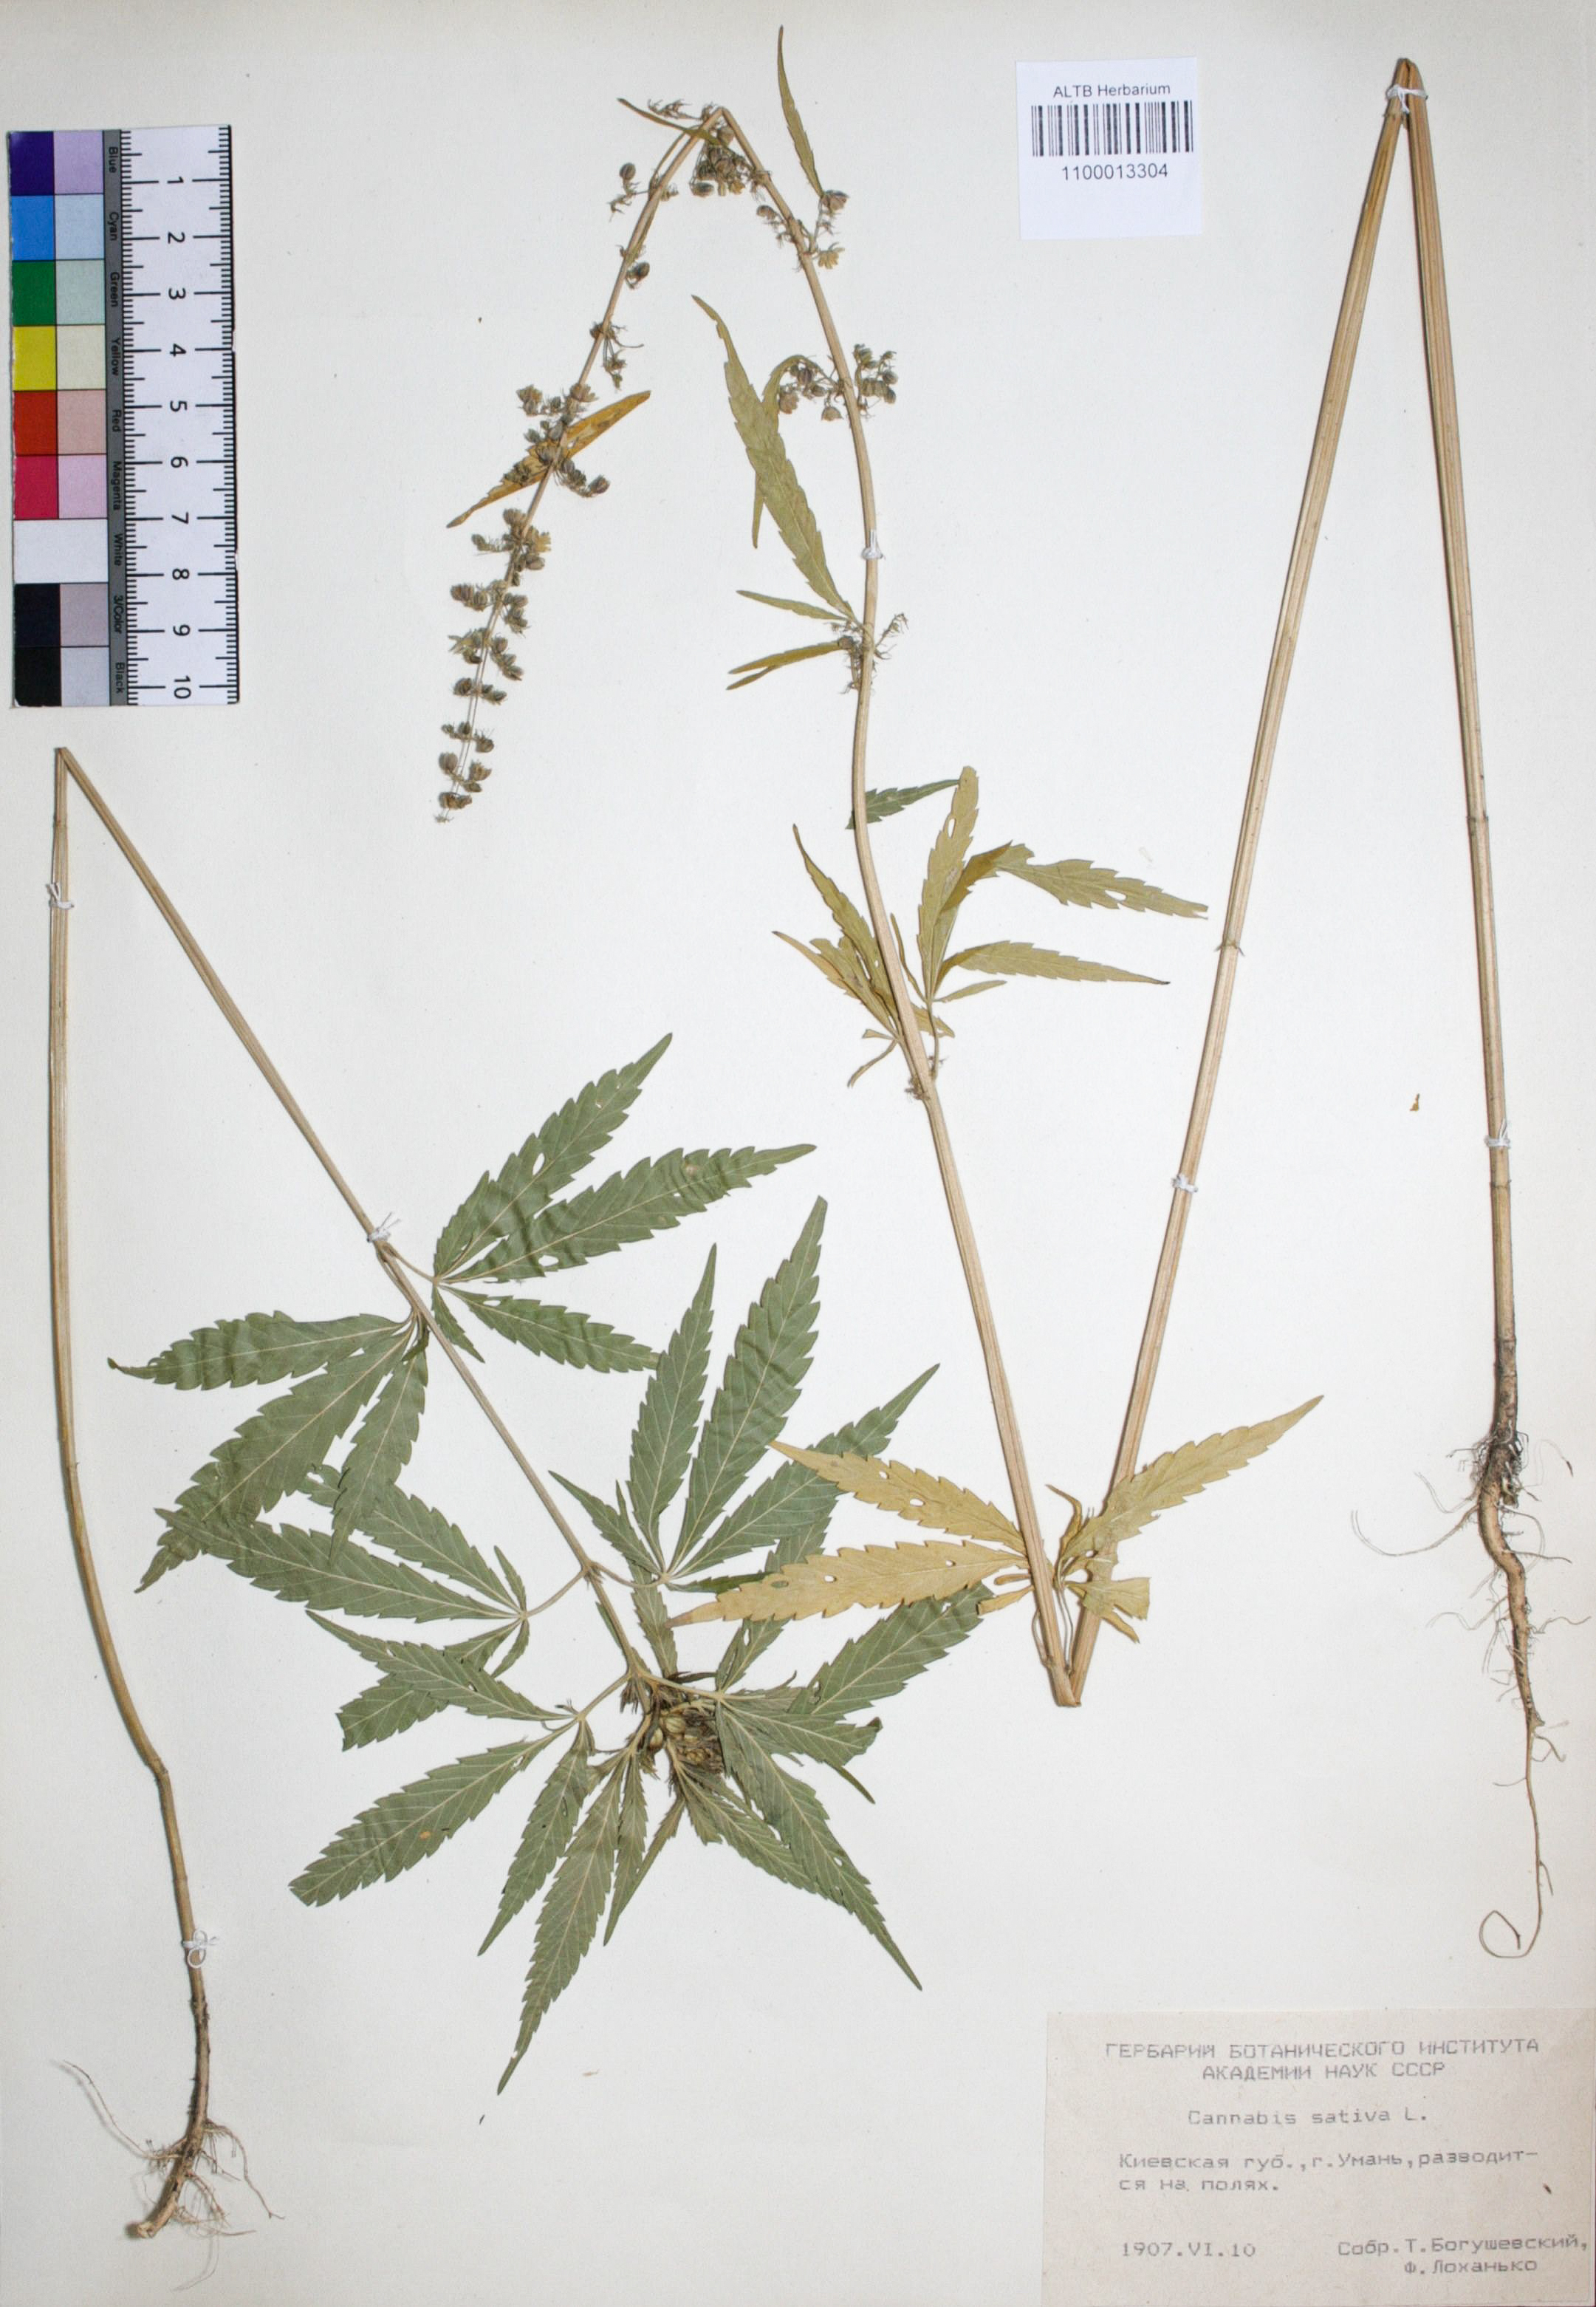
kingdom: Plantae
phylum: Tracheophyta
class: Magnoliopsida
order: Rosales
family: Cannabaceae
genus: Cannabis
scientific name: Cannabis sativa
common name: Hemp
